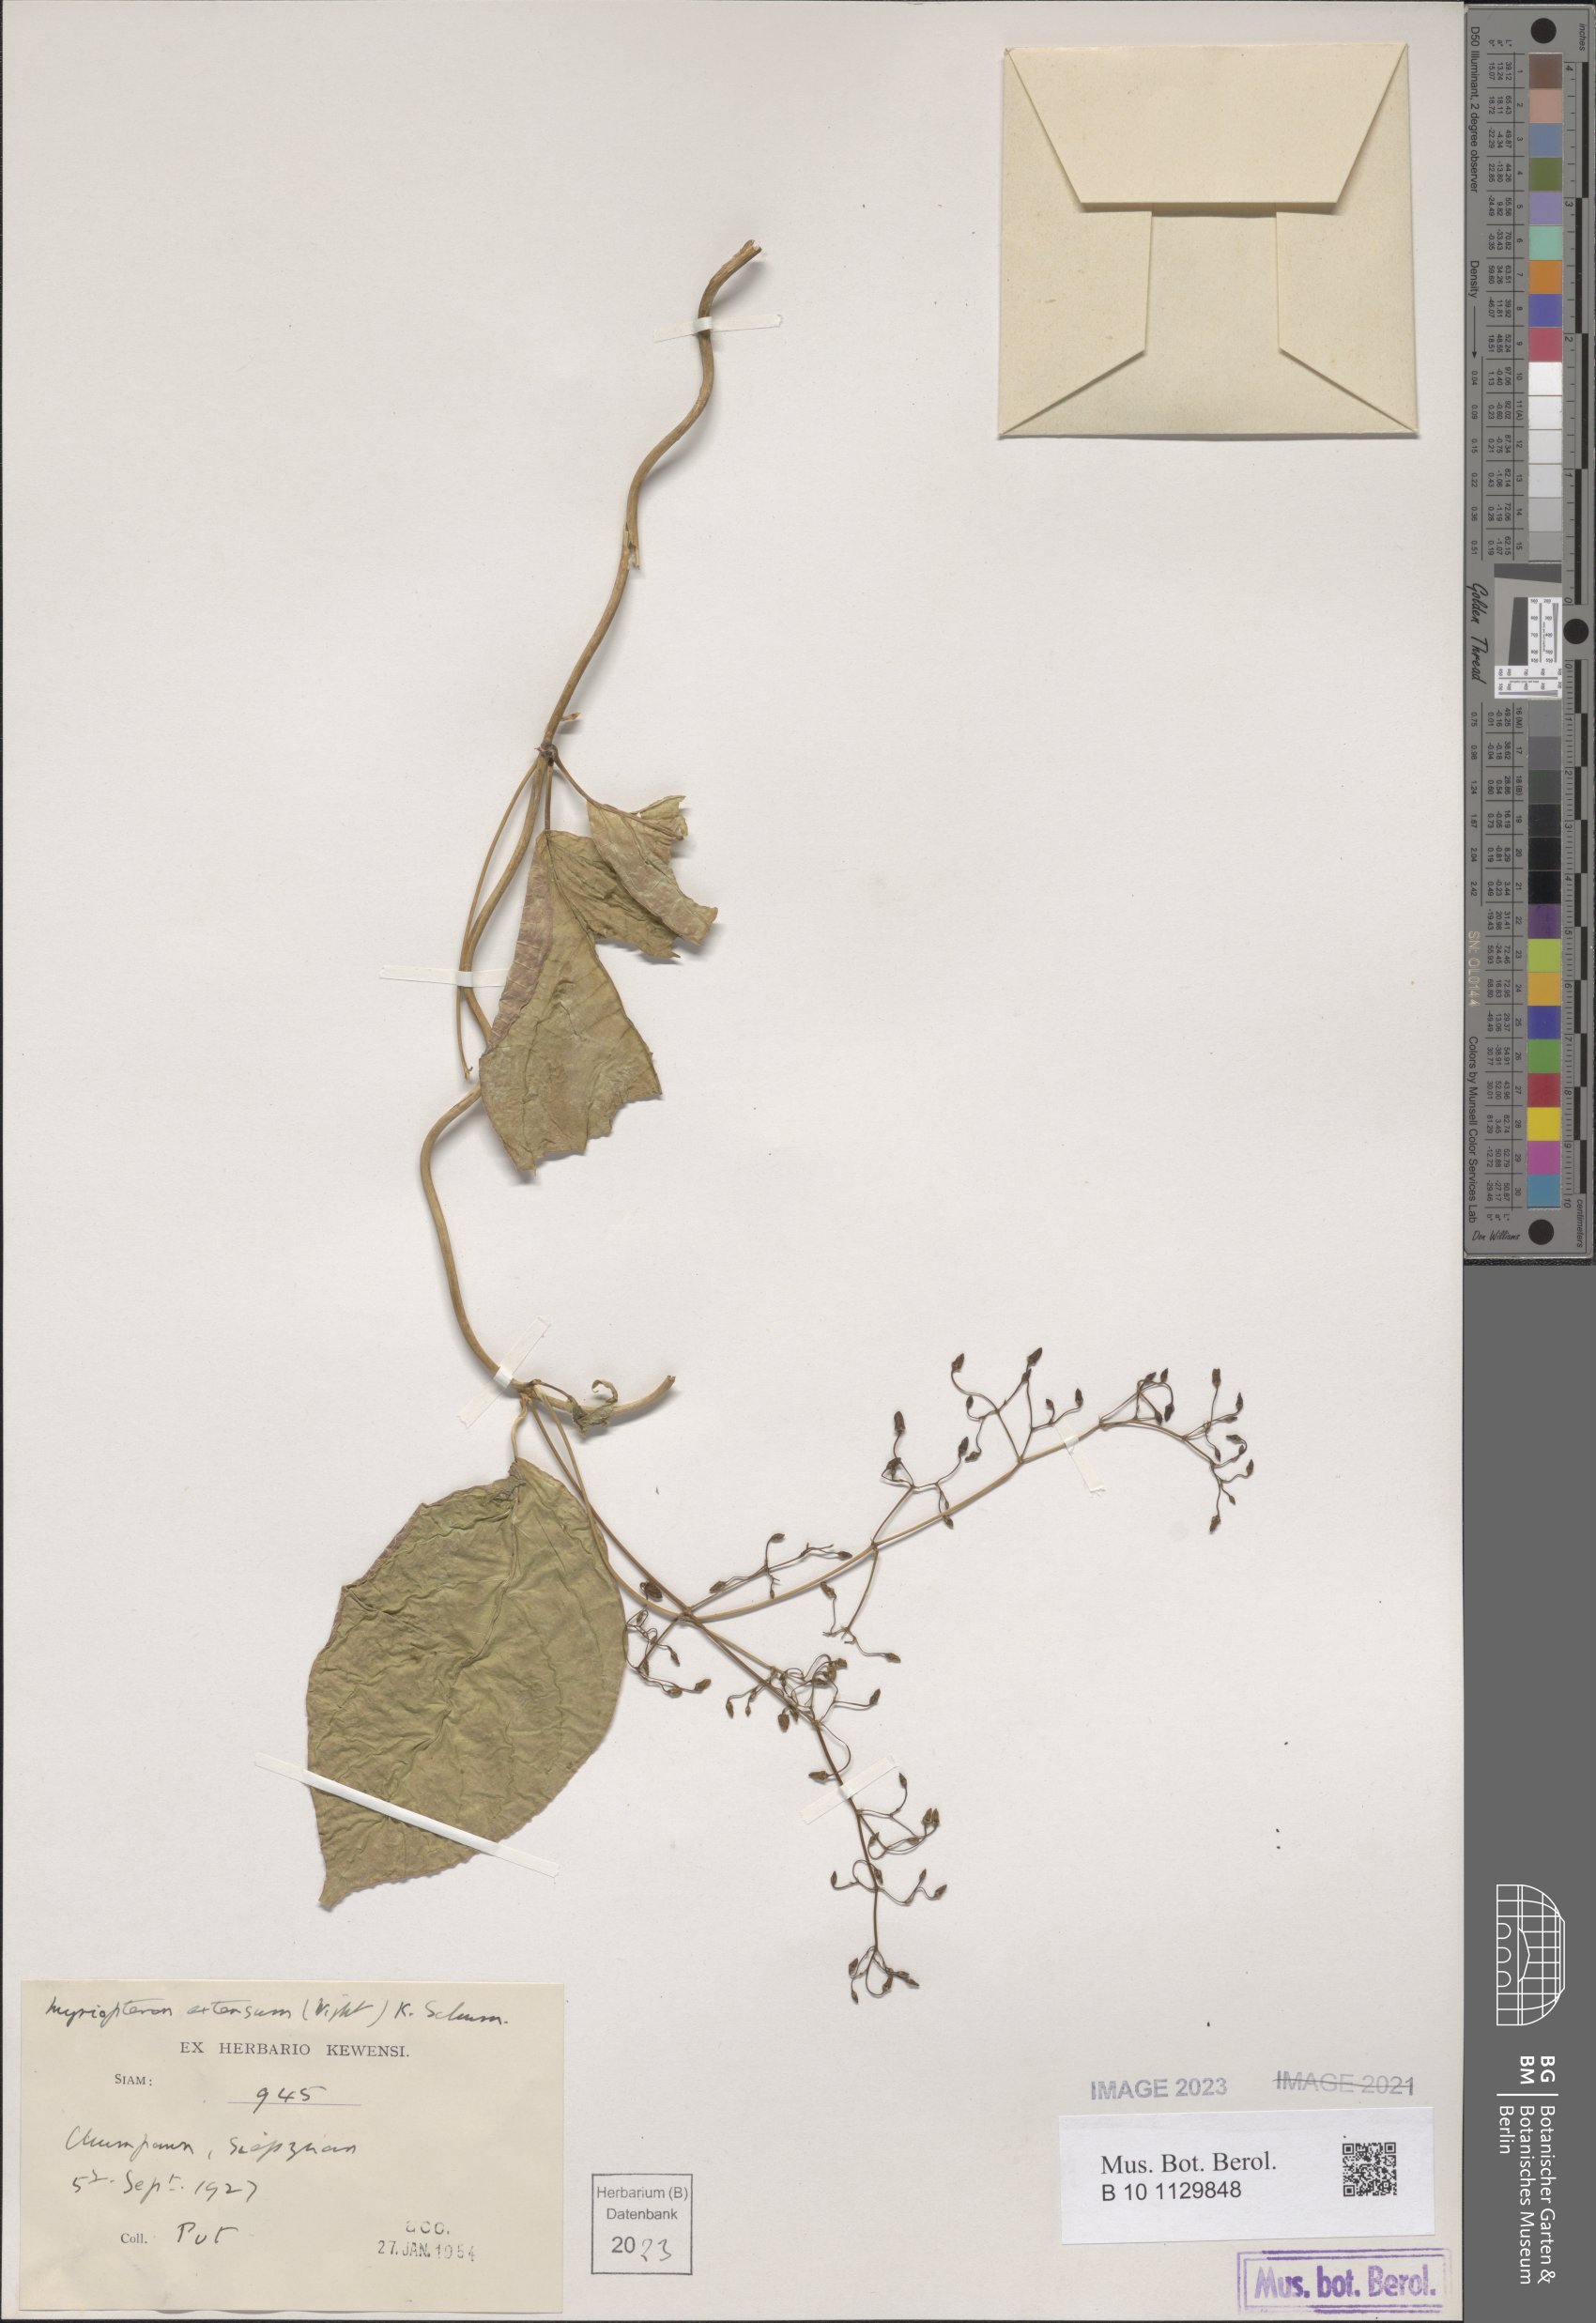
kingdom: Plantae
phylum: Tracheophyta
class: Magnoliopsida
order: Gentianales
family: Apocynaceae
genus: Myriopteron
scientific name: Myriopteron extensum
